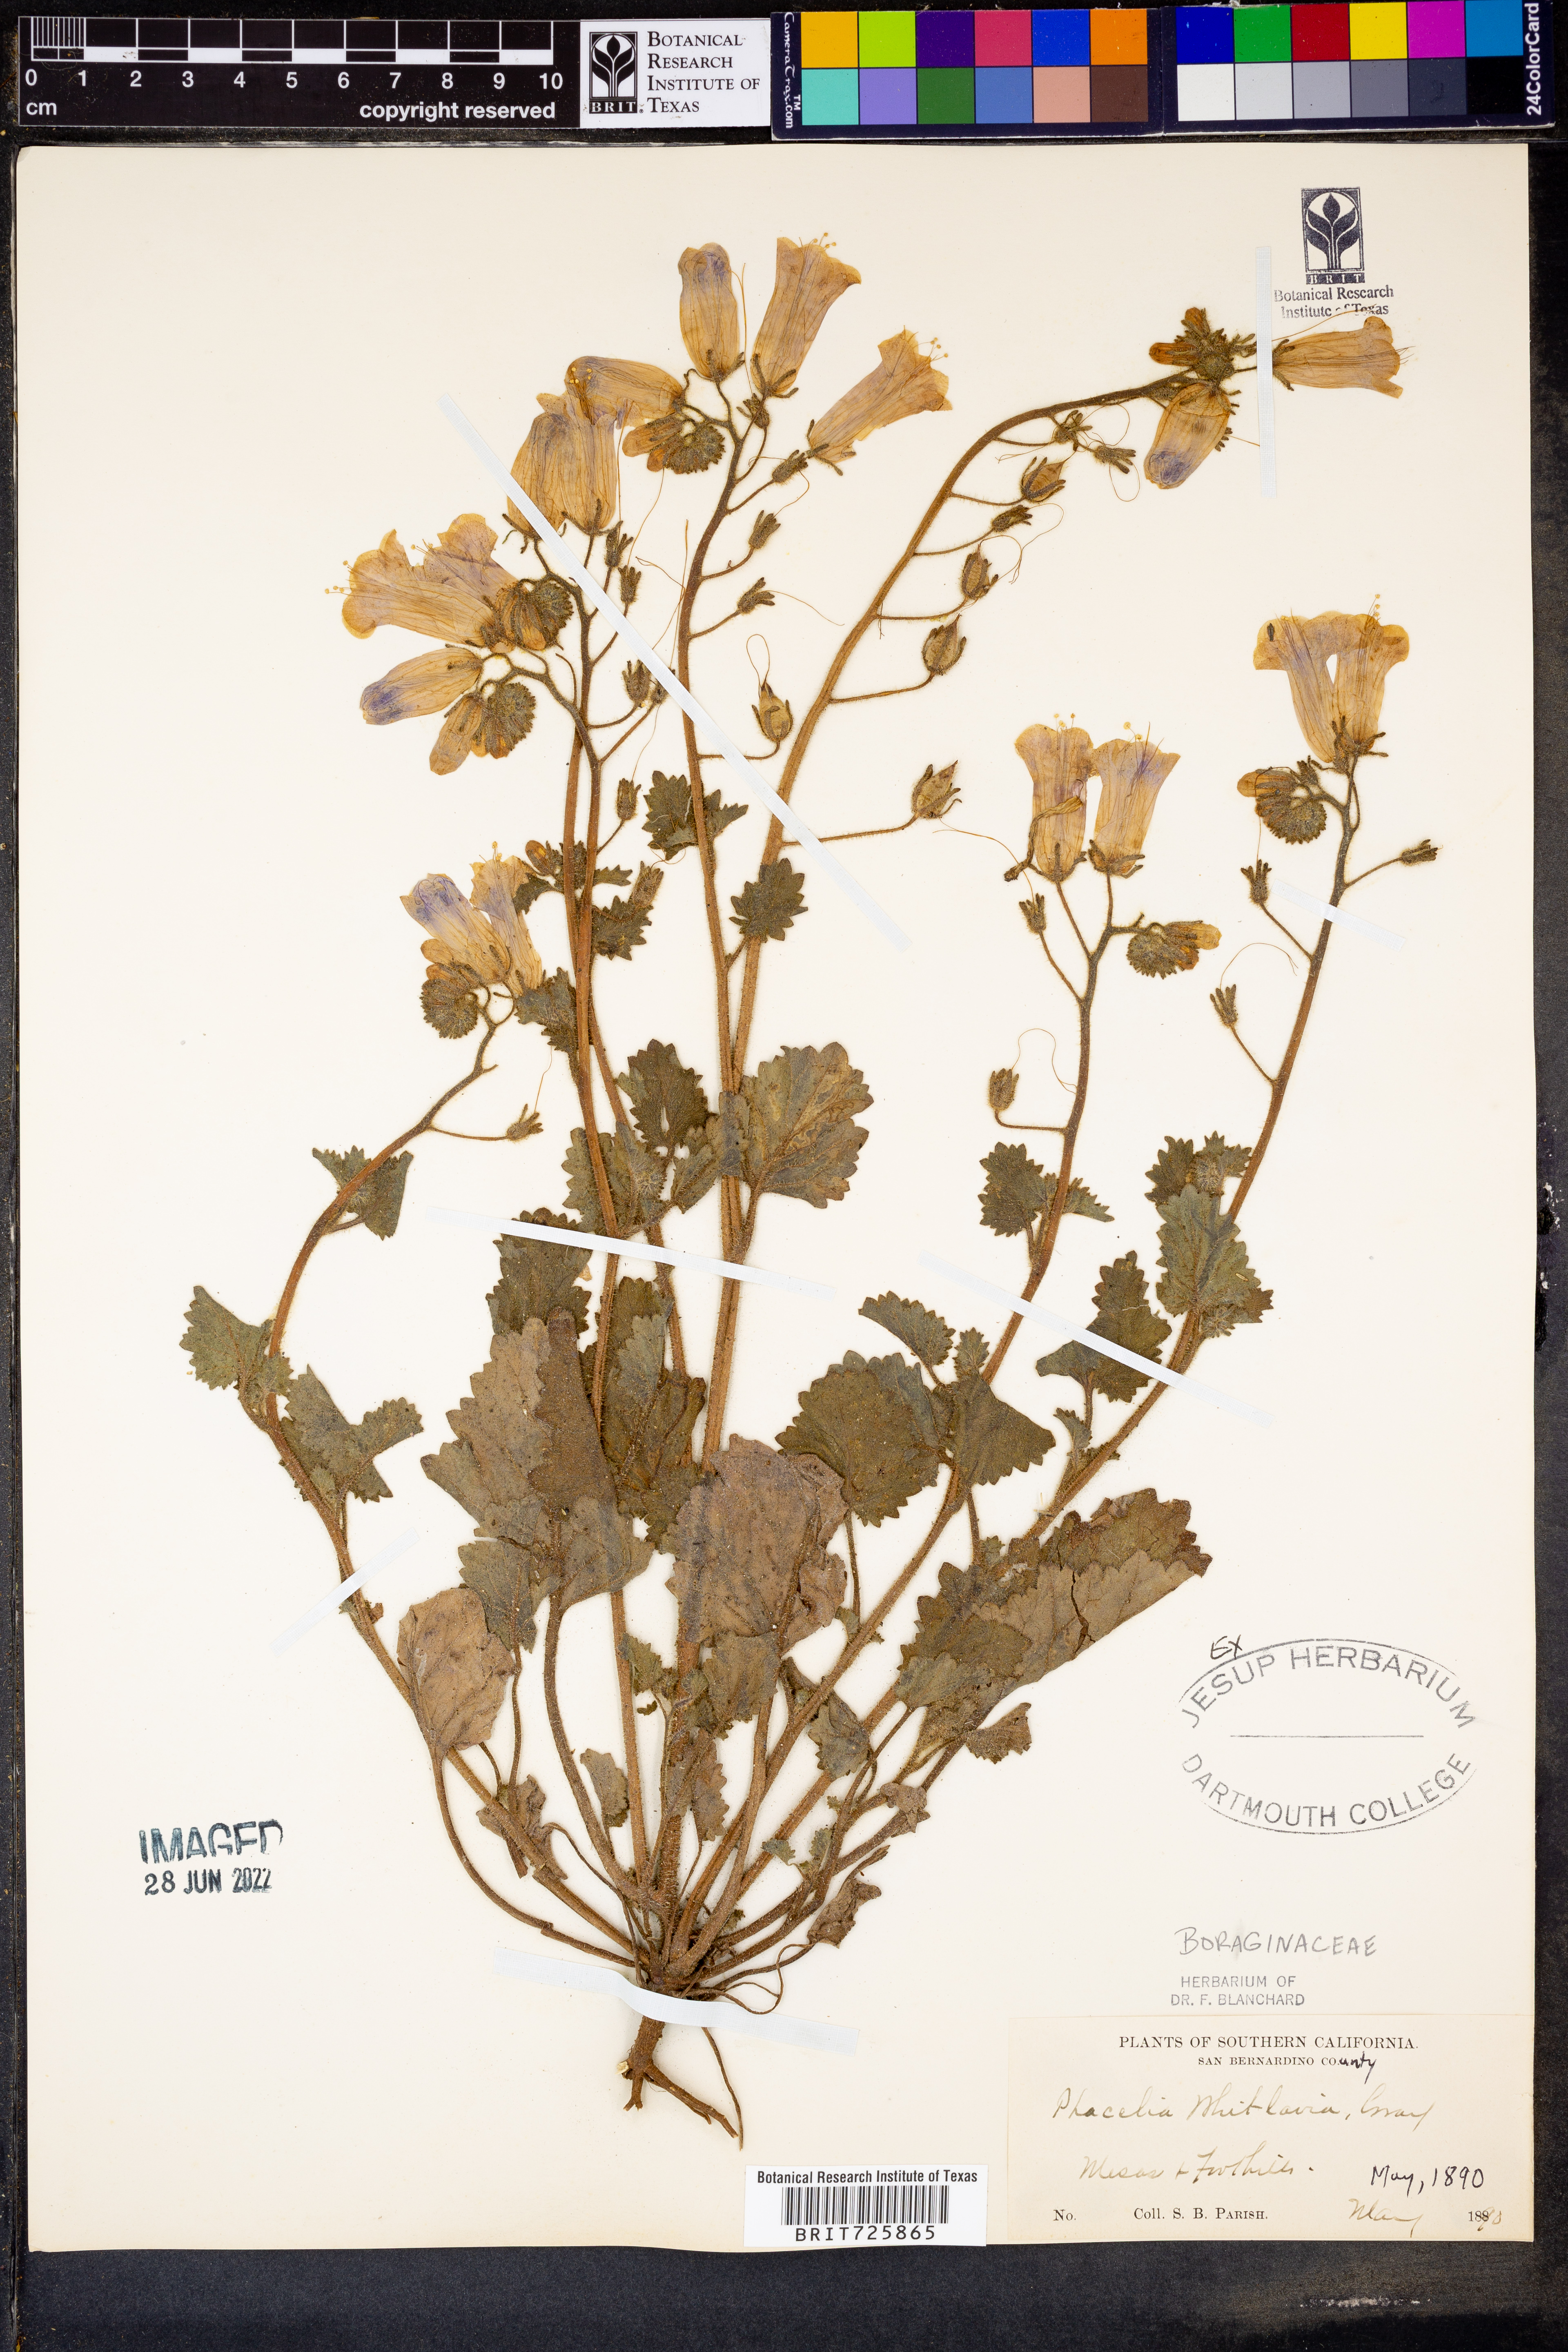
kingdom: Plantae
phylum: Tracheophyta
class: Magnoliopsida
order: Boraginales
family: Hydrophyllaceae
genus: Phacelia
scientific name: Phacelia
